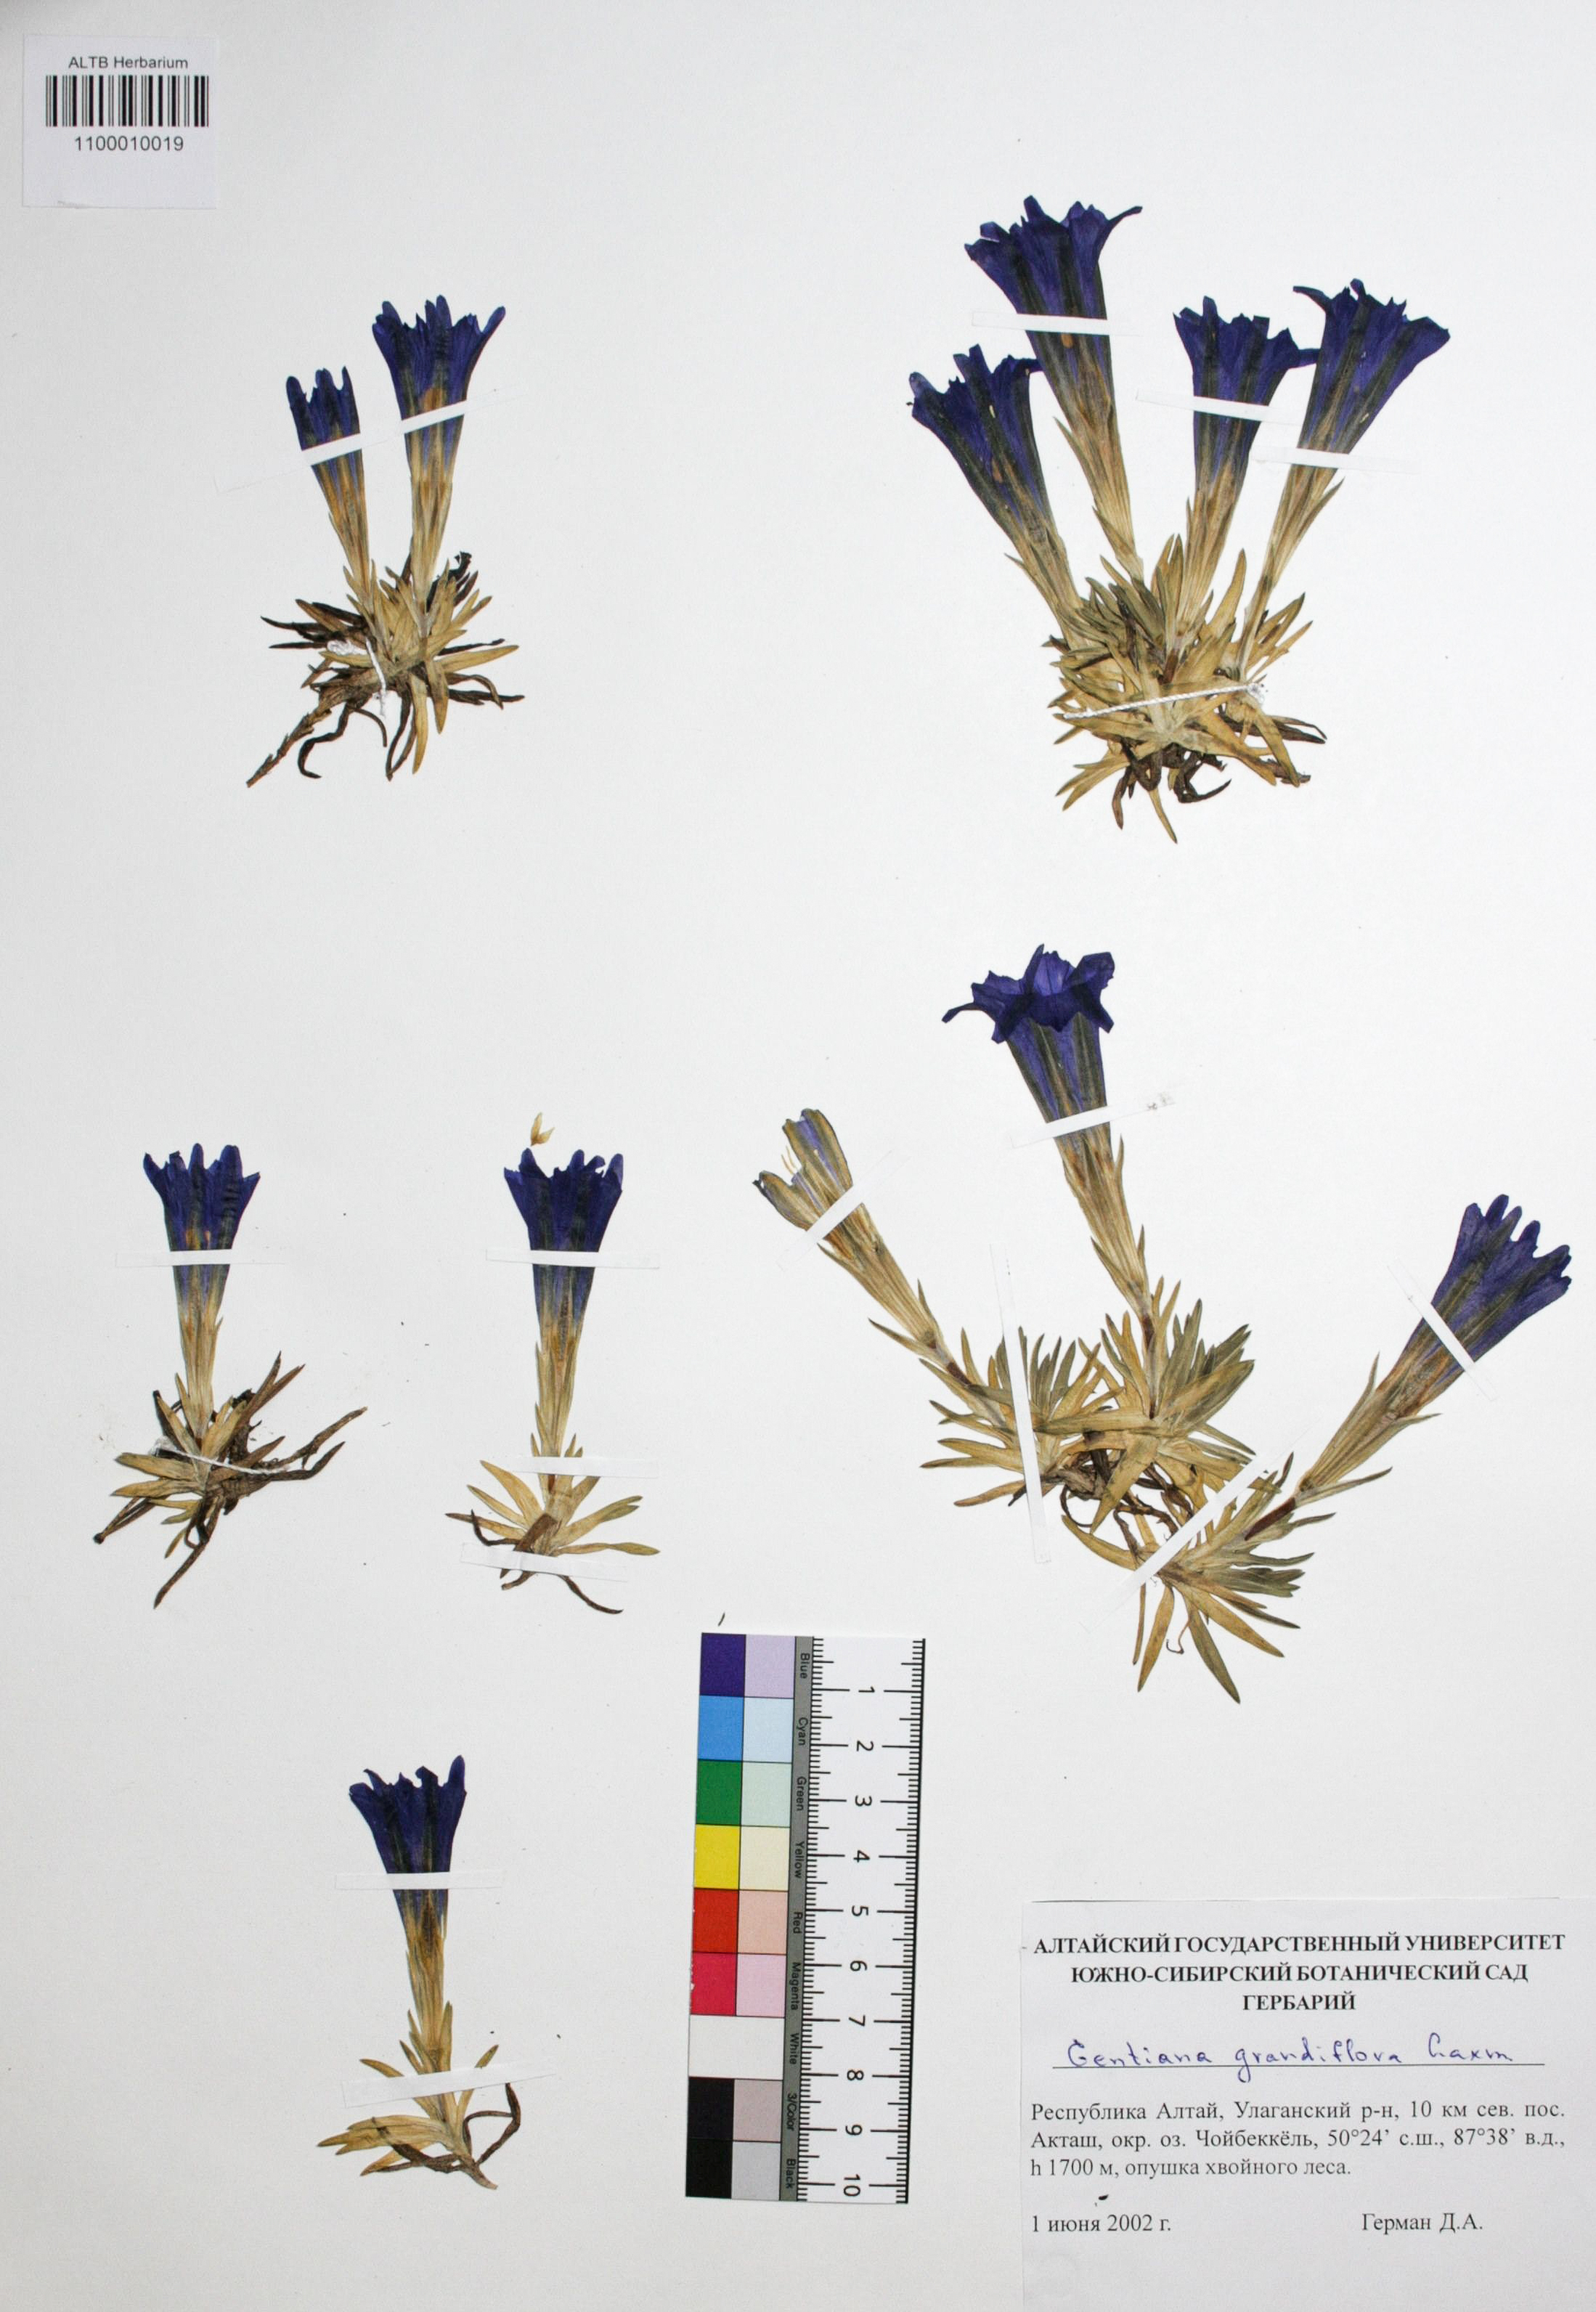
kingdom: Plantae
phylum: Tracheophyta
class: Magnoliopsida
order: Gentianales
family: Gentianaceae
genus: Gentiana
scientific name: Gentiana grandiflora
